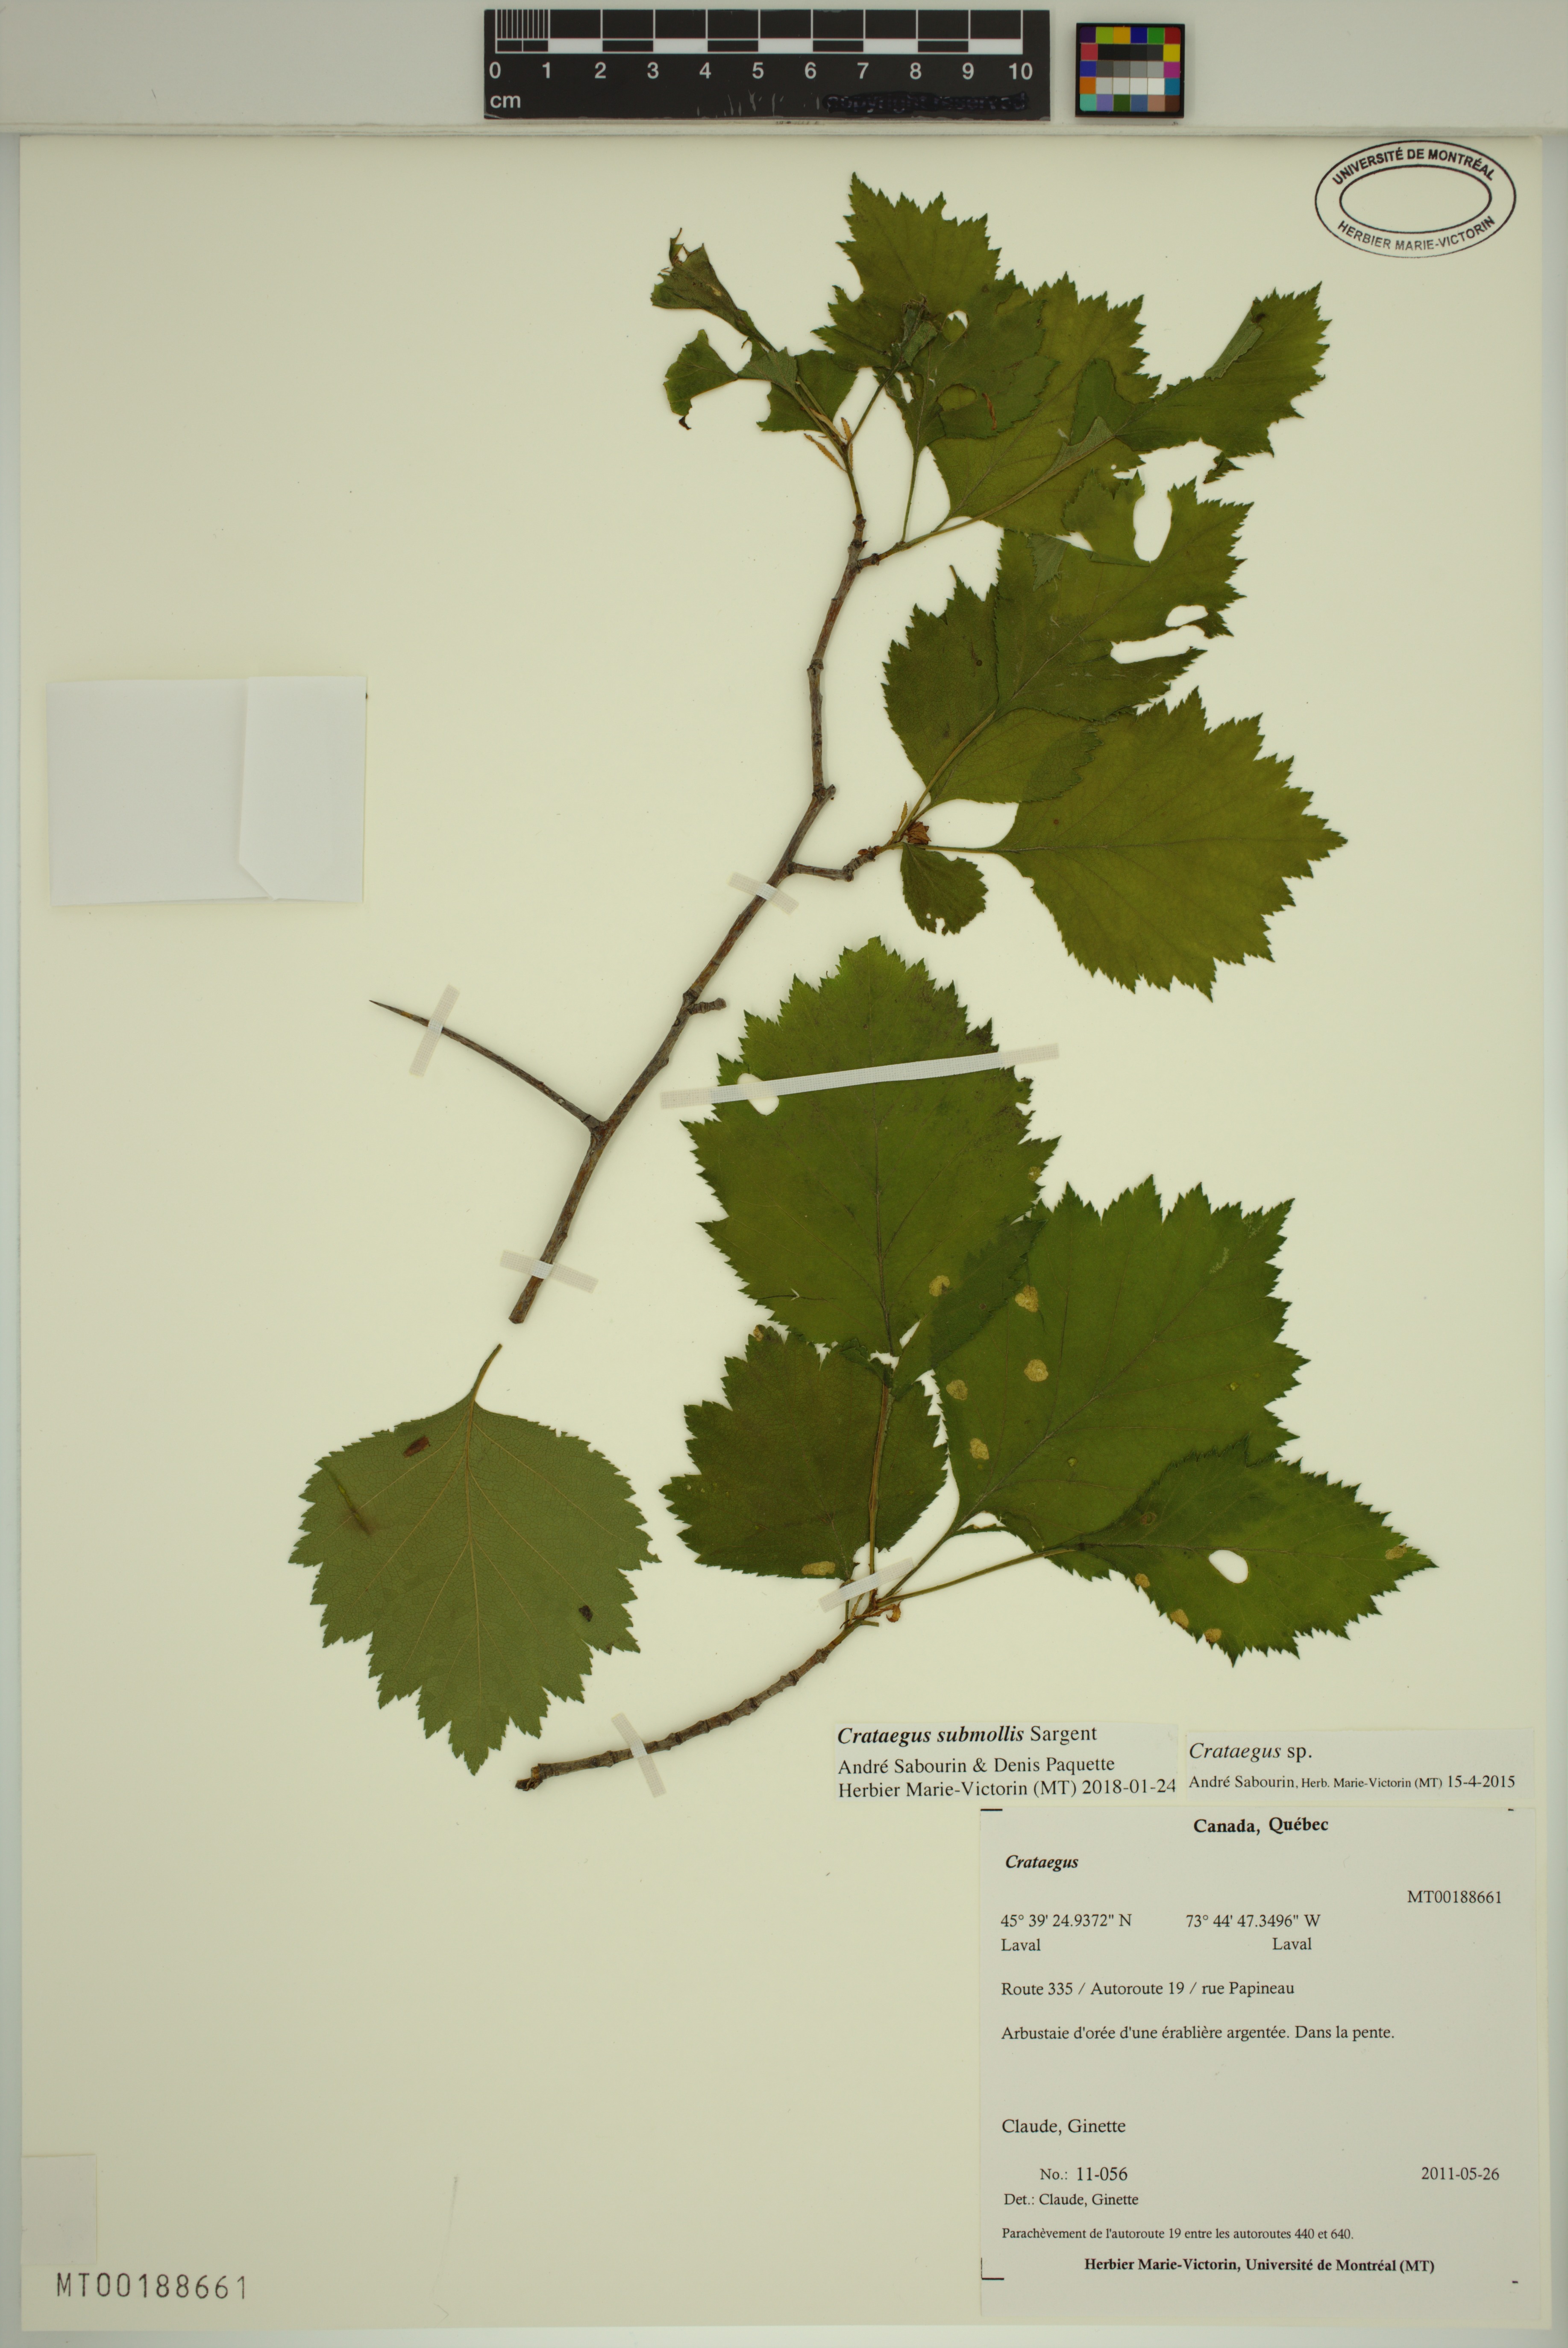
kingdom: Plantae
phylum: Tracheophyta
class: Magnoliopsida
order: Rosales
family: Rosaceae
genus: Crataegus
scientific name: Crataegus submollis
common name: Hairy cockspurthorn
